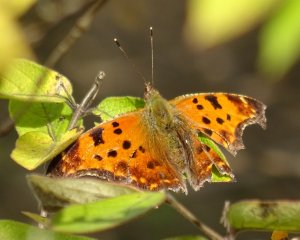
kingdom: Animalia
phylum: Arthropoda
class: Insecta
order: Lepidoptera
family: Nymphalidae
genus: Polygonia
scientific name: Polygonia comma
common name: Eastern Comma
